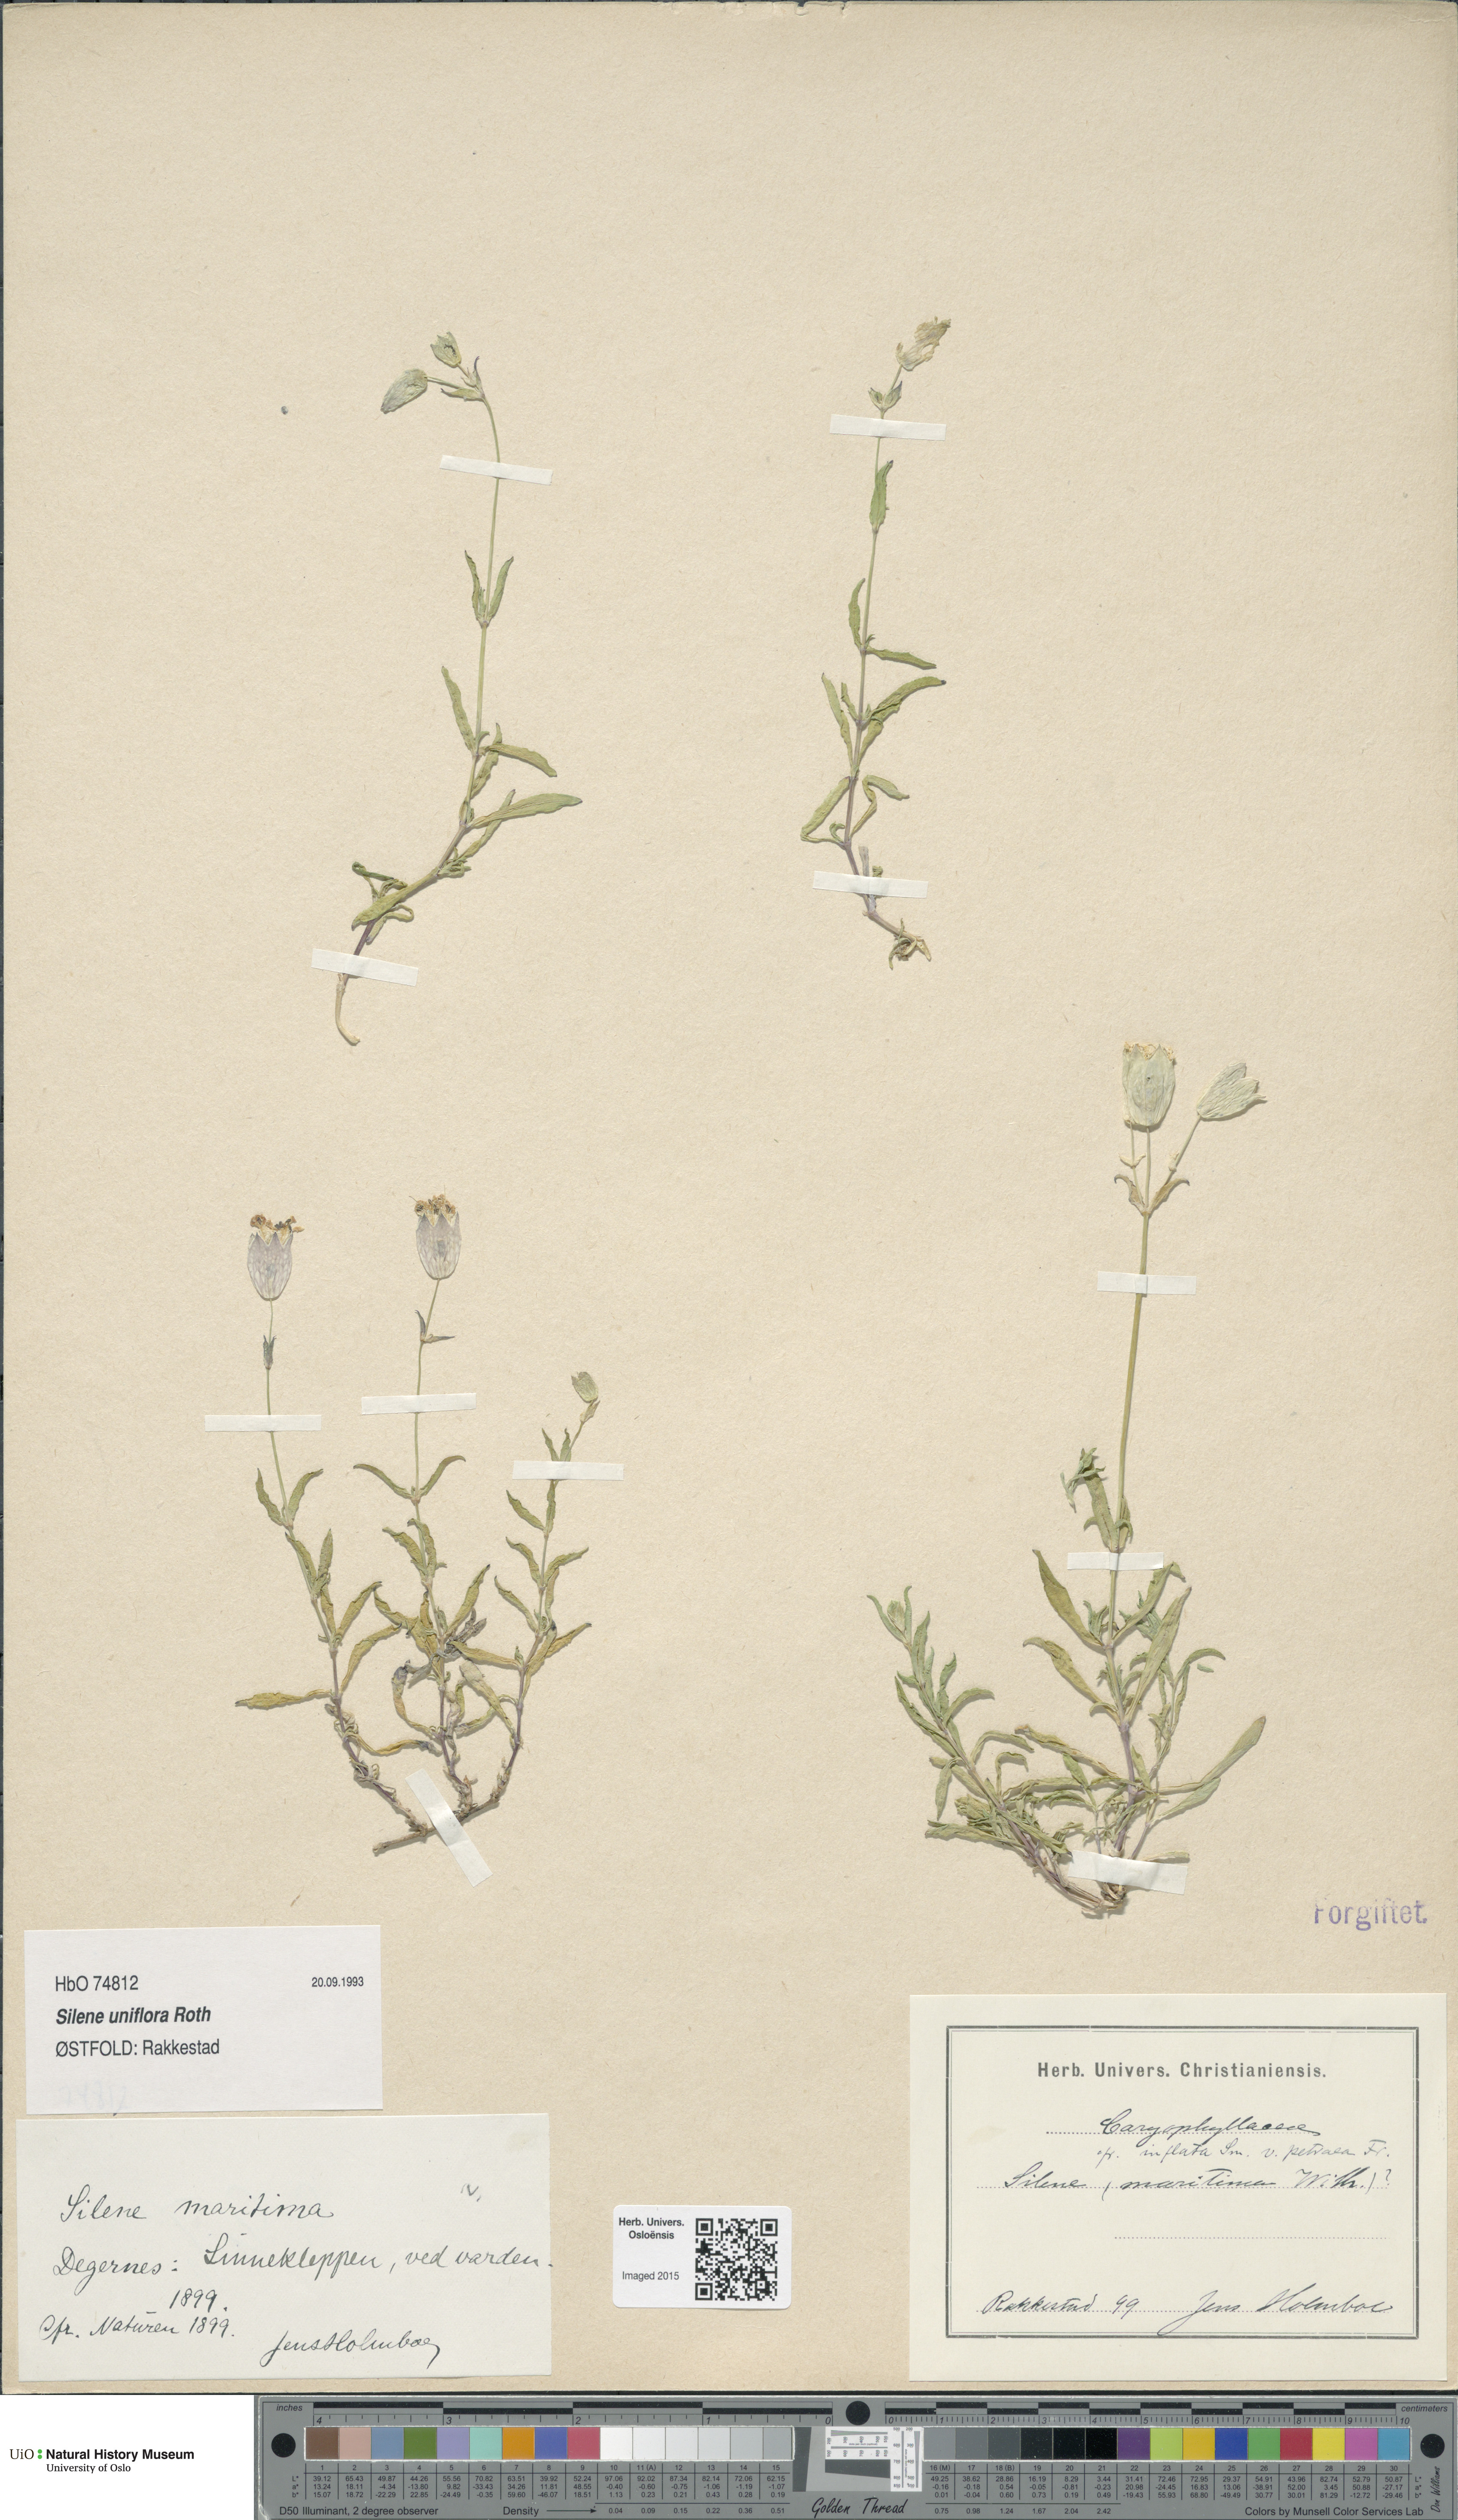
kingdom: Plantae
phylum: Tracheophyta
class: Magnoliopsida
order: Caryophyllales
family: Caryophyllaceae
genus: Silene
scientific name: Silene uniflora
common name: Sea campion
